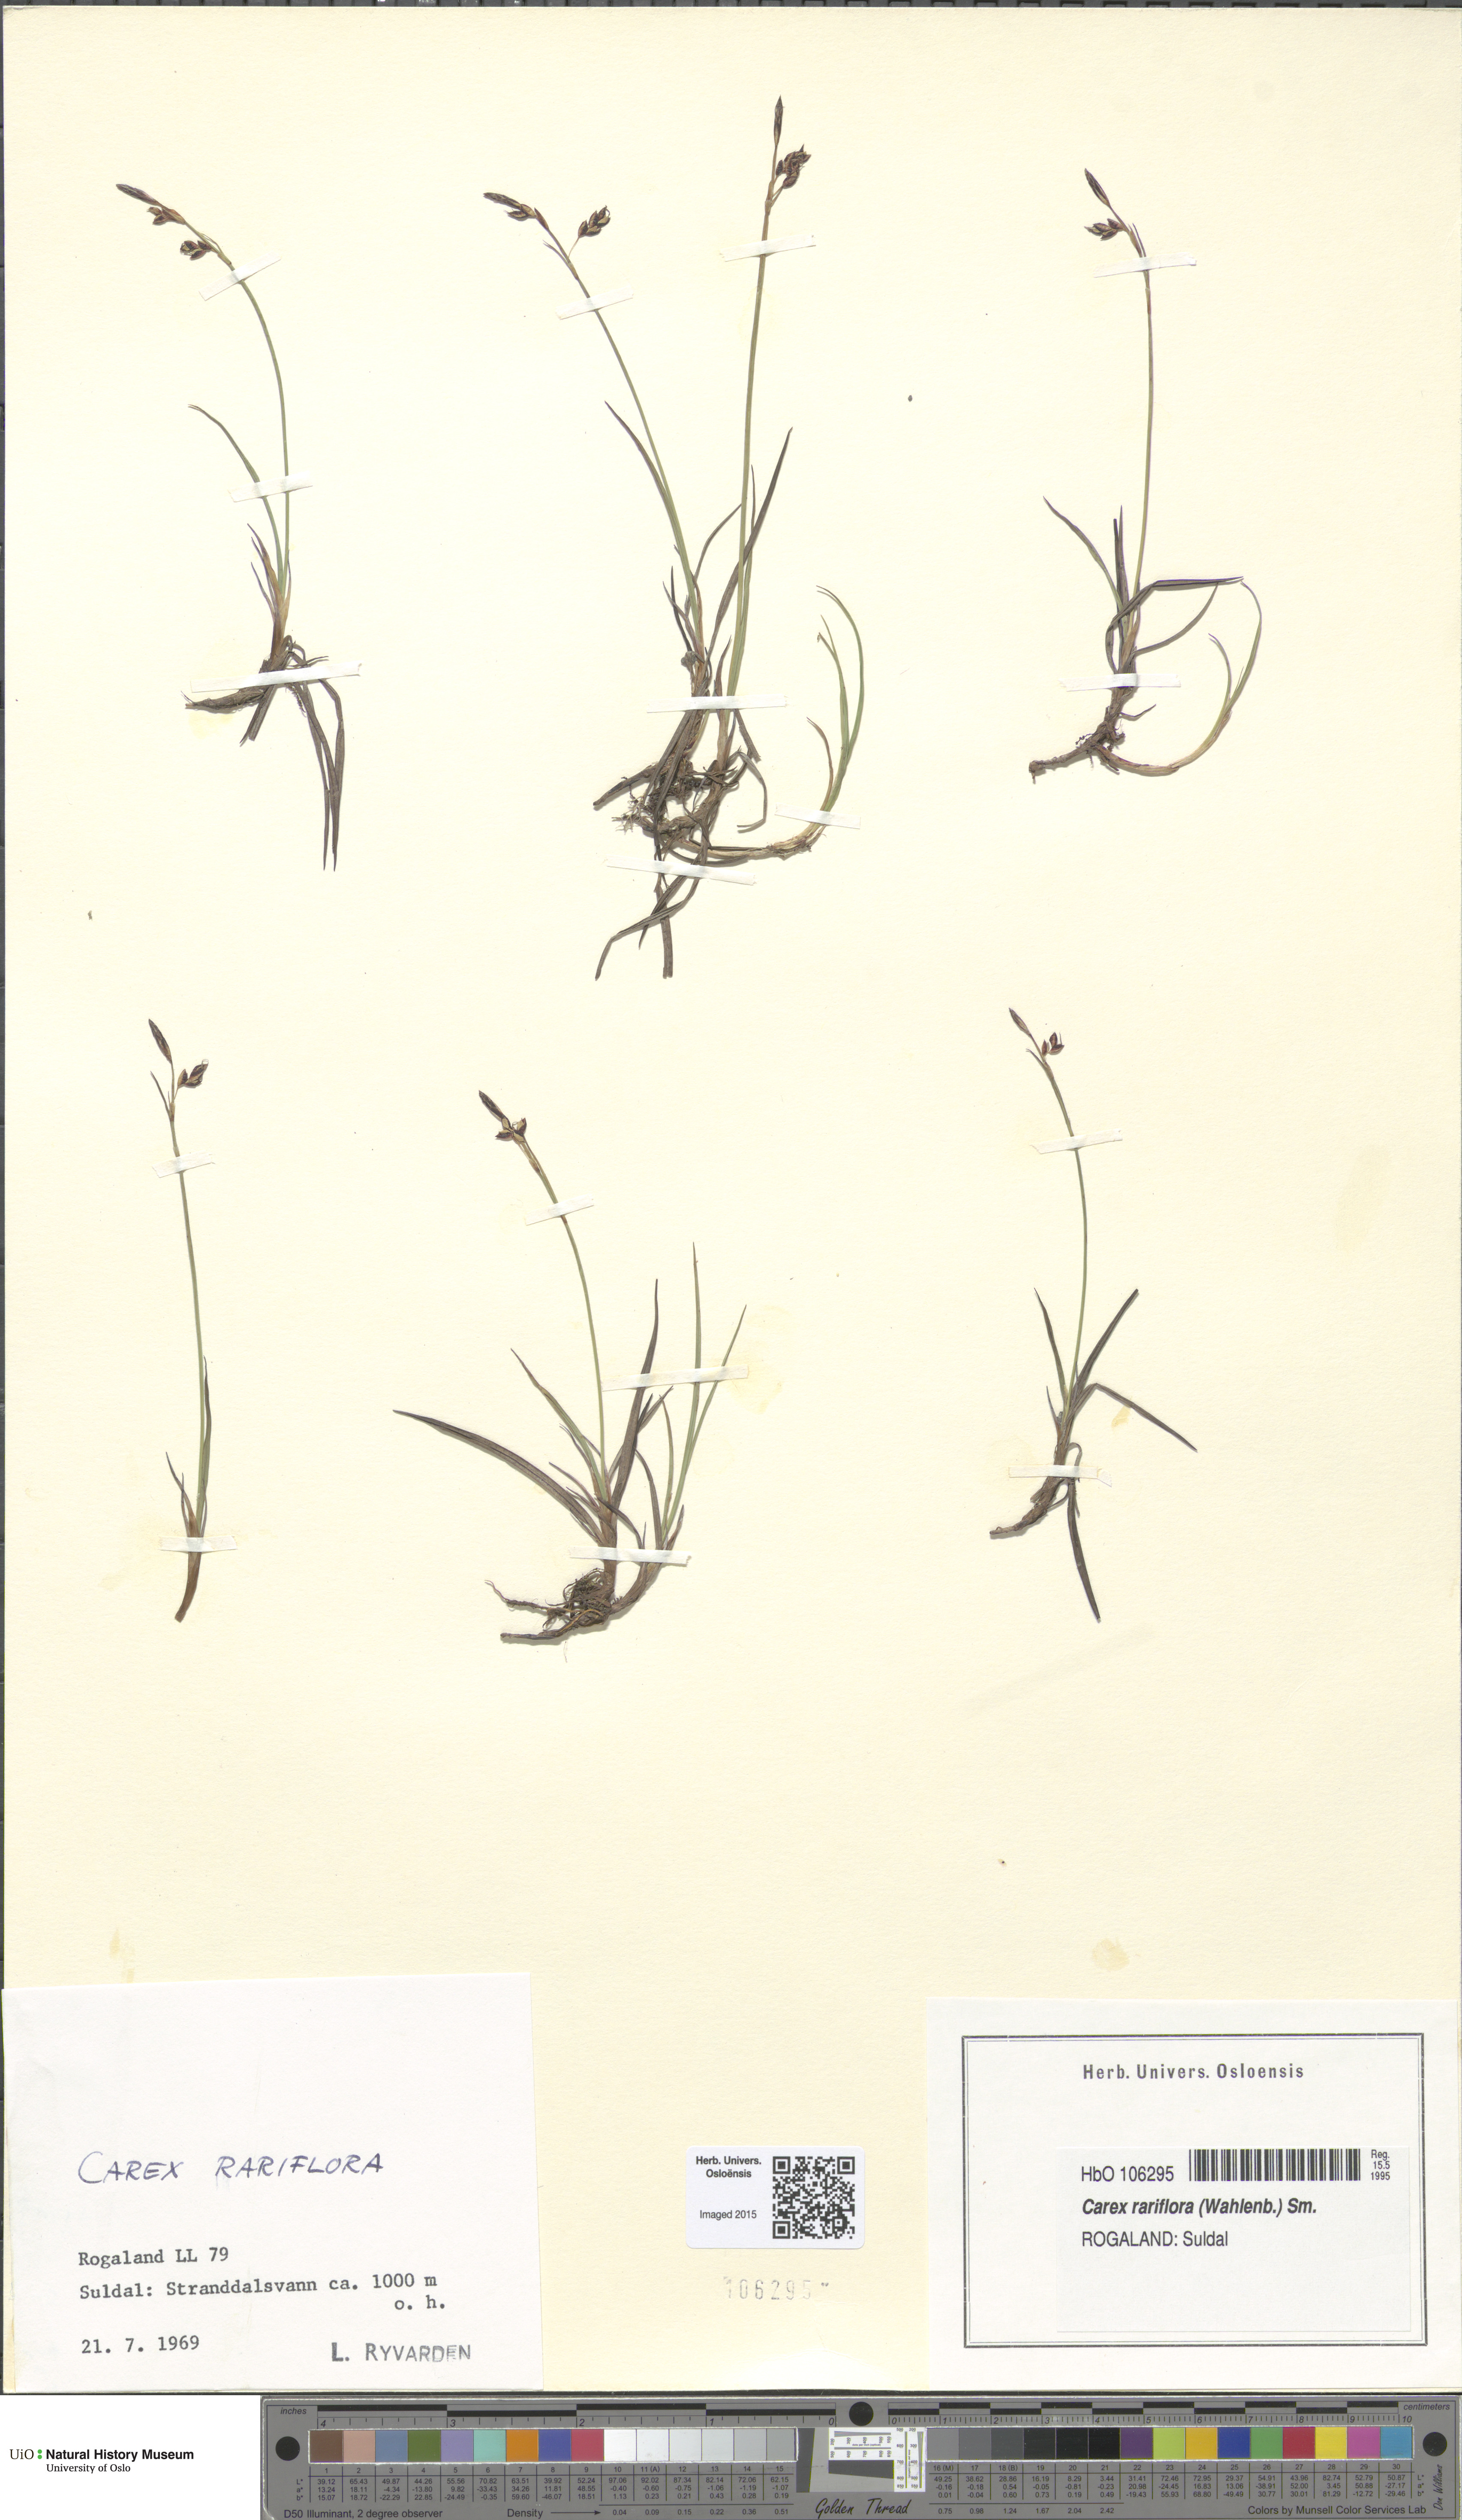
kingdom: Plantae
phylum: Tracheophyta
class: Liliopsida
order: Poales
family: Cyperaceae
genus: Carex
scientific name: Carex rariflora
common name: Loose-flowered alpine sedge
